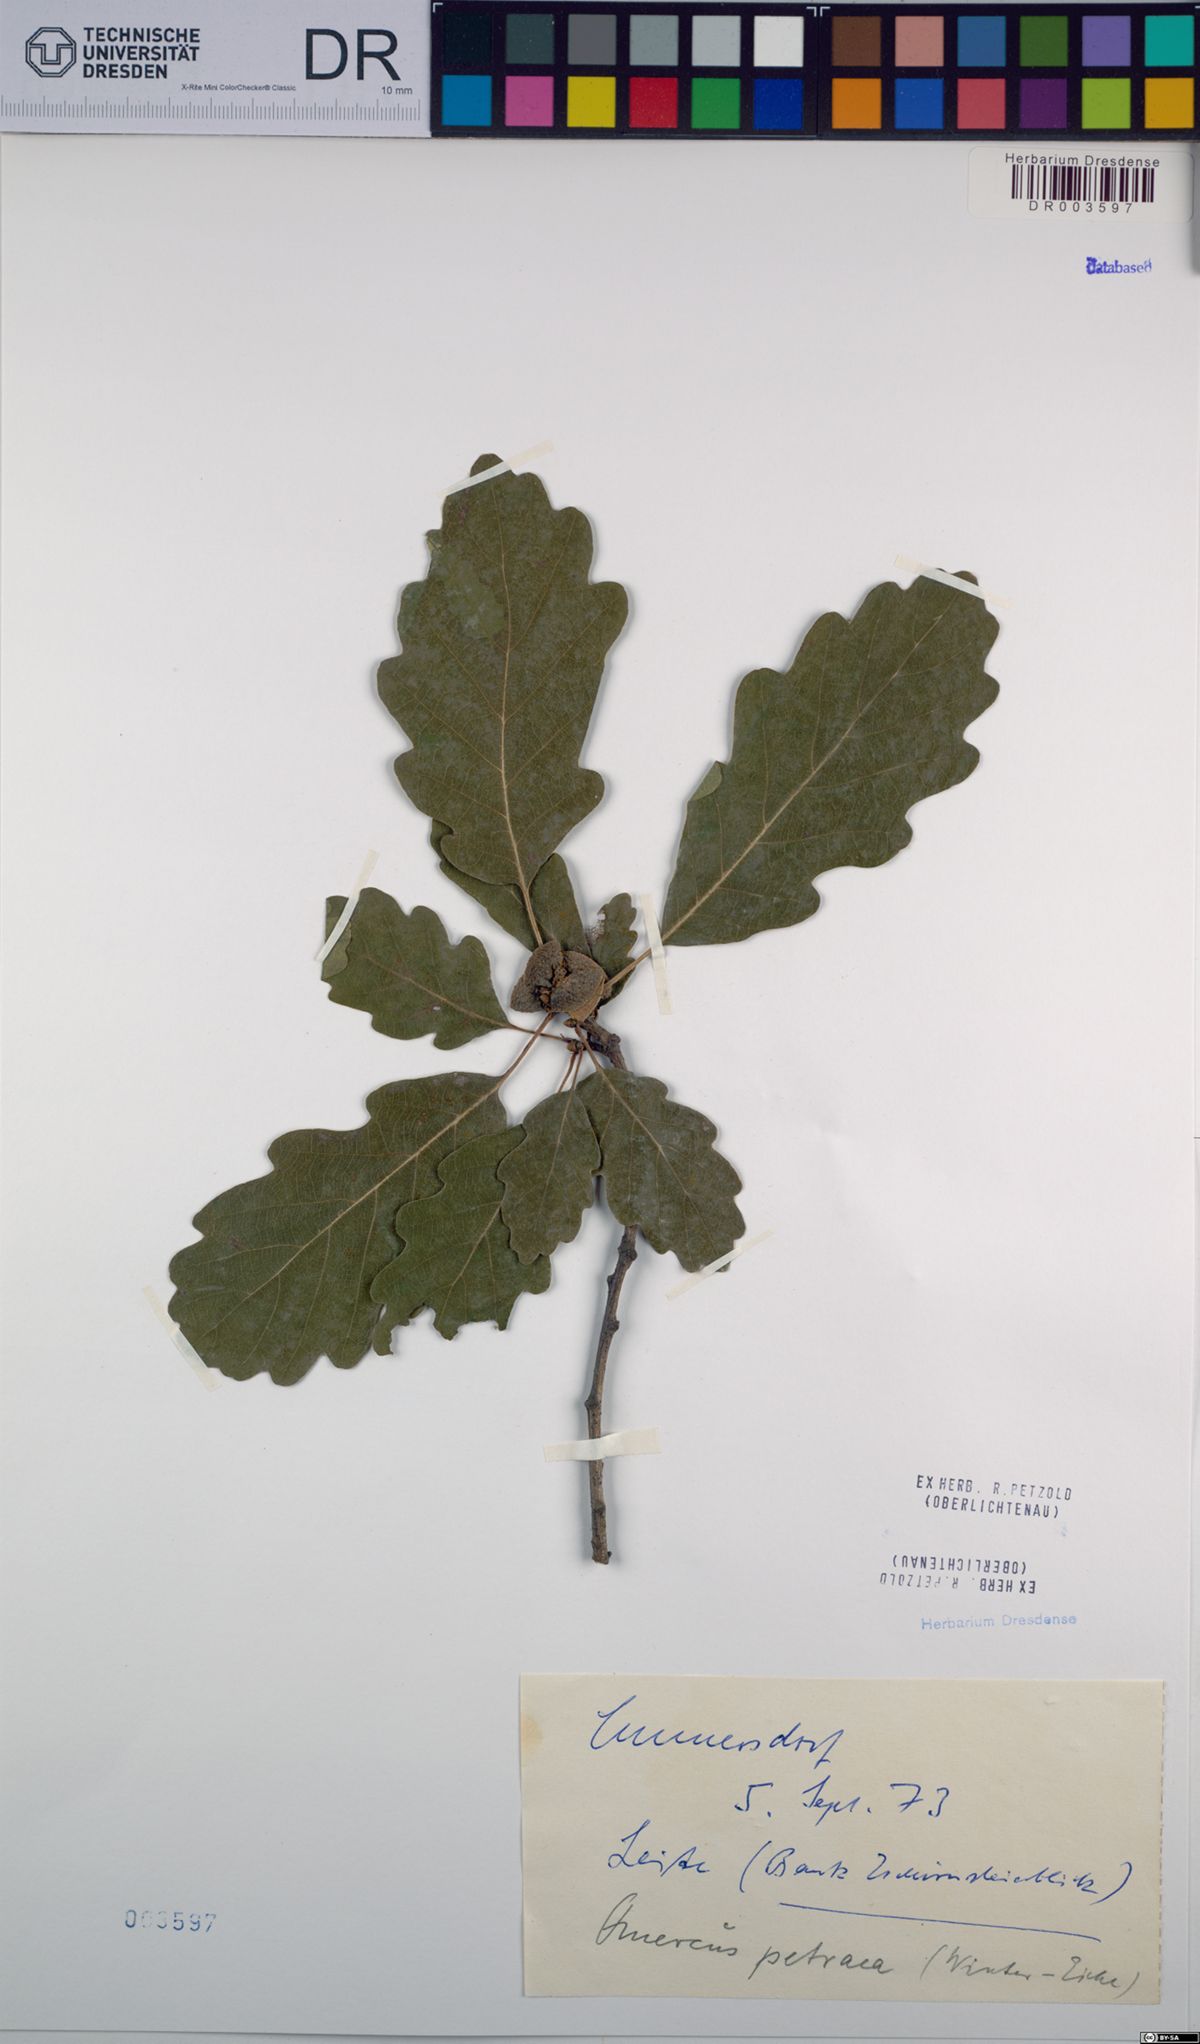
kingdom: Plantae
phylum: Tracheophyta
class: Magnoliopsida
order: Fagales
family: Fagaceae
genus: Quercus
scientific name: Quercus petraea
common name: Sessile oak
